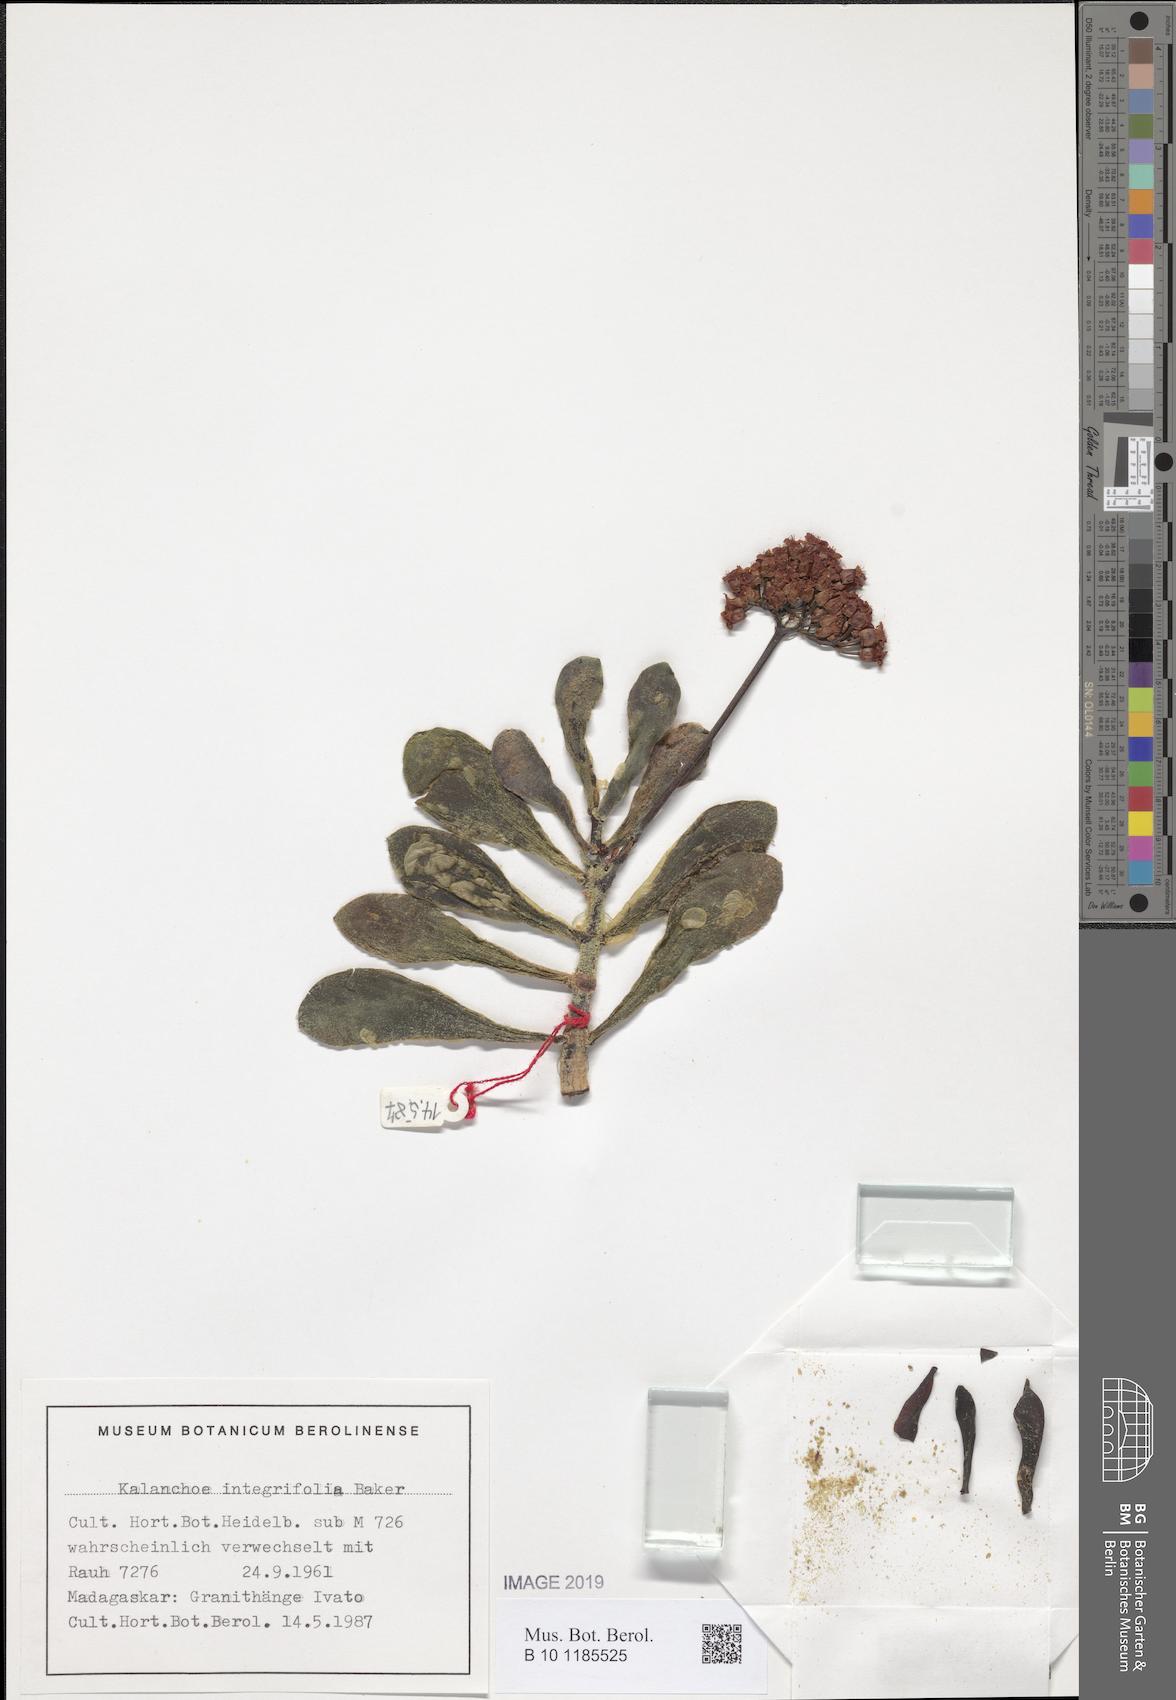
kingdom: Plantae
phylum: Tracheophyta
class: Magnoliopsida
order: Saxifragales
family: Crassulaceae
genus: Kalanchoe
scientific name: Kalanchoe integrifolia
